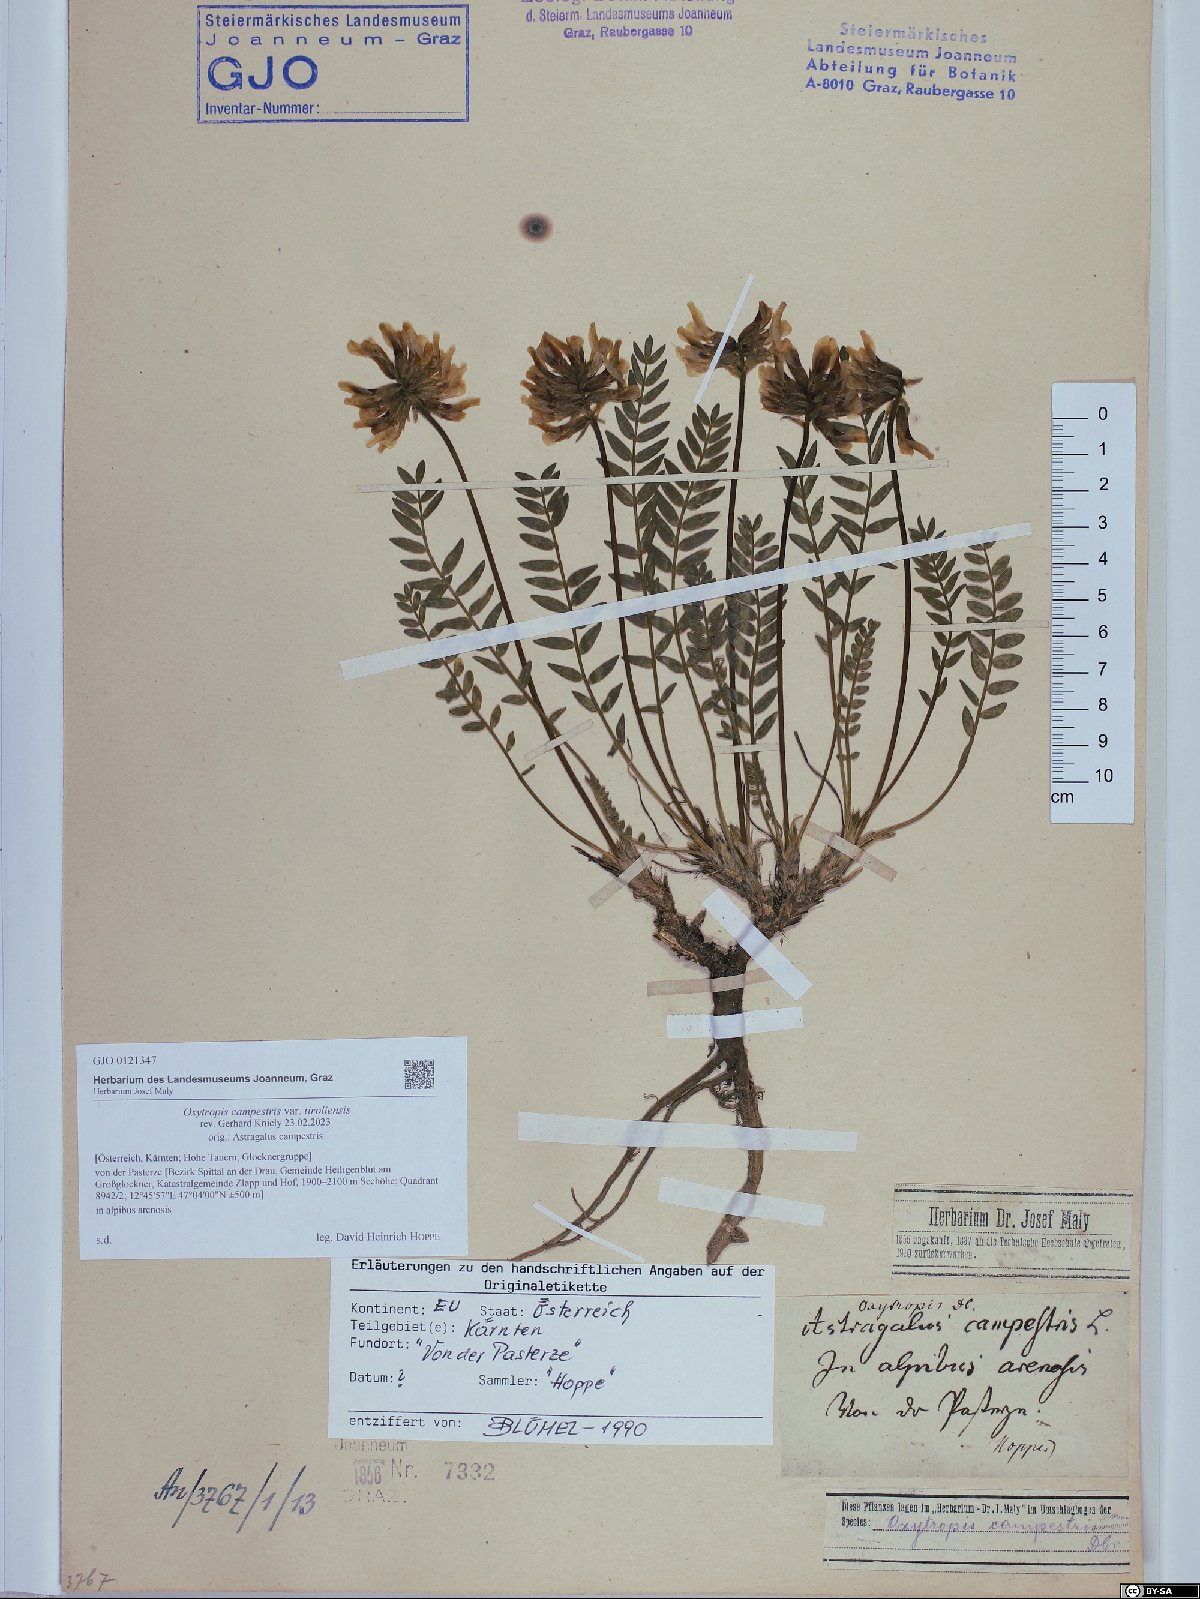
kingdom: Plantae
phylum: Tracheophyta
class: Magnoliopsida
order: Fabales
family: Fabaceae
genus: Oxytropis
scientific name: Oxytropis campestris
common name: Field locoweed
